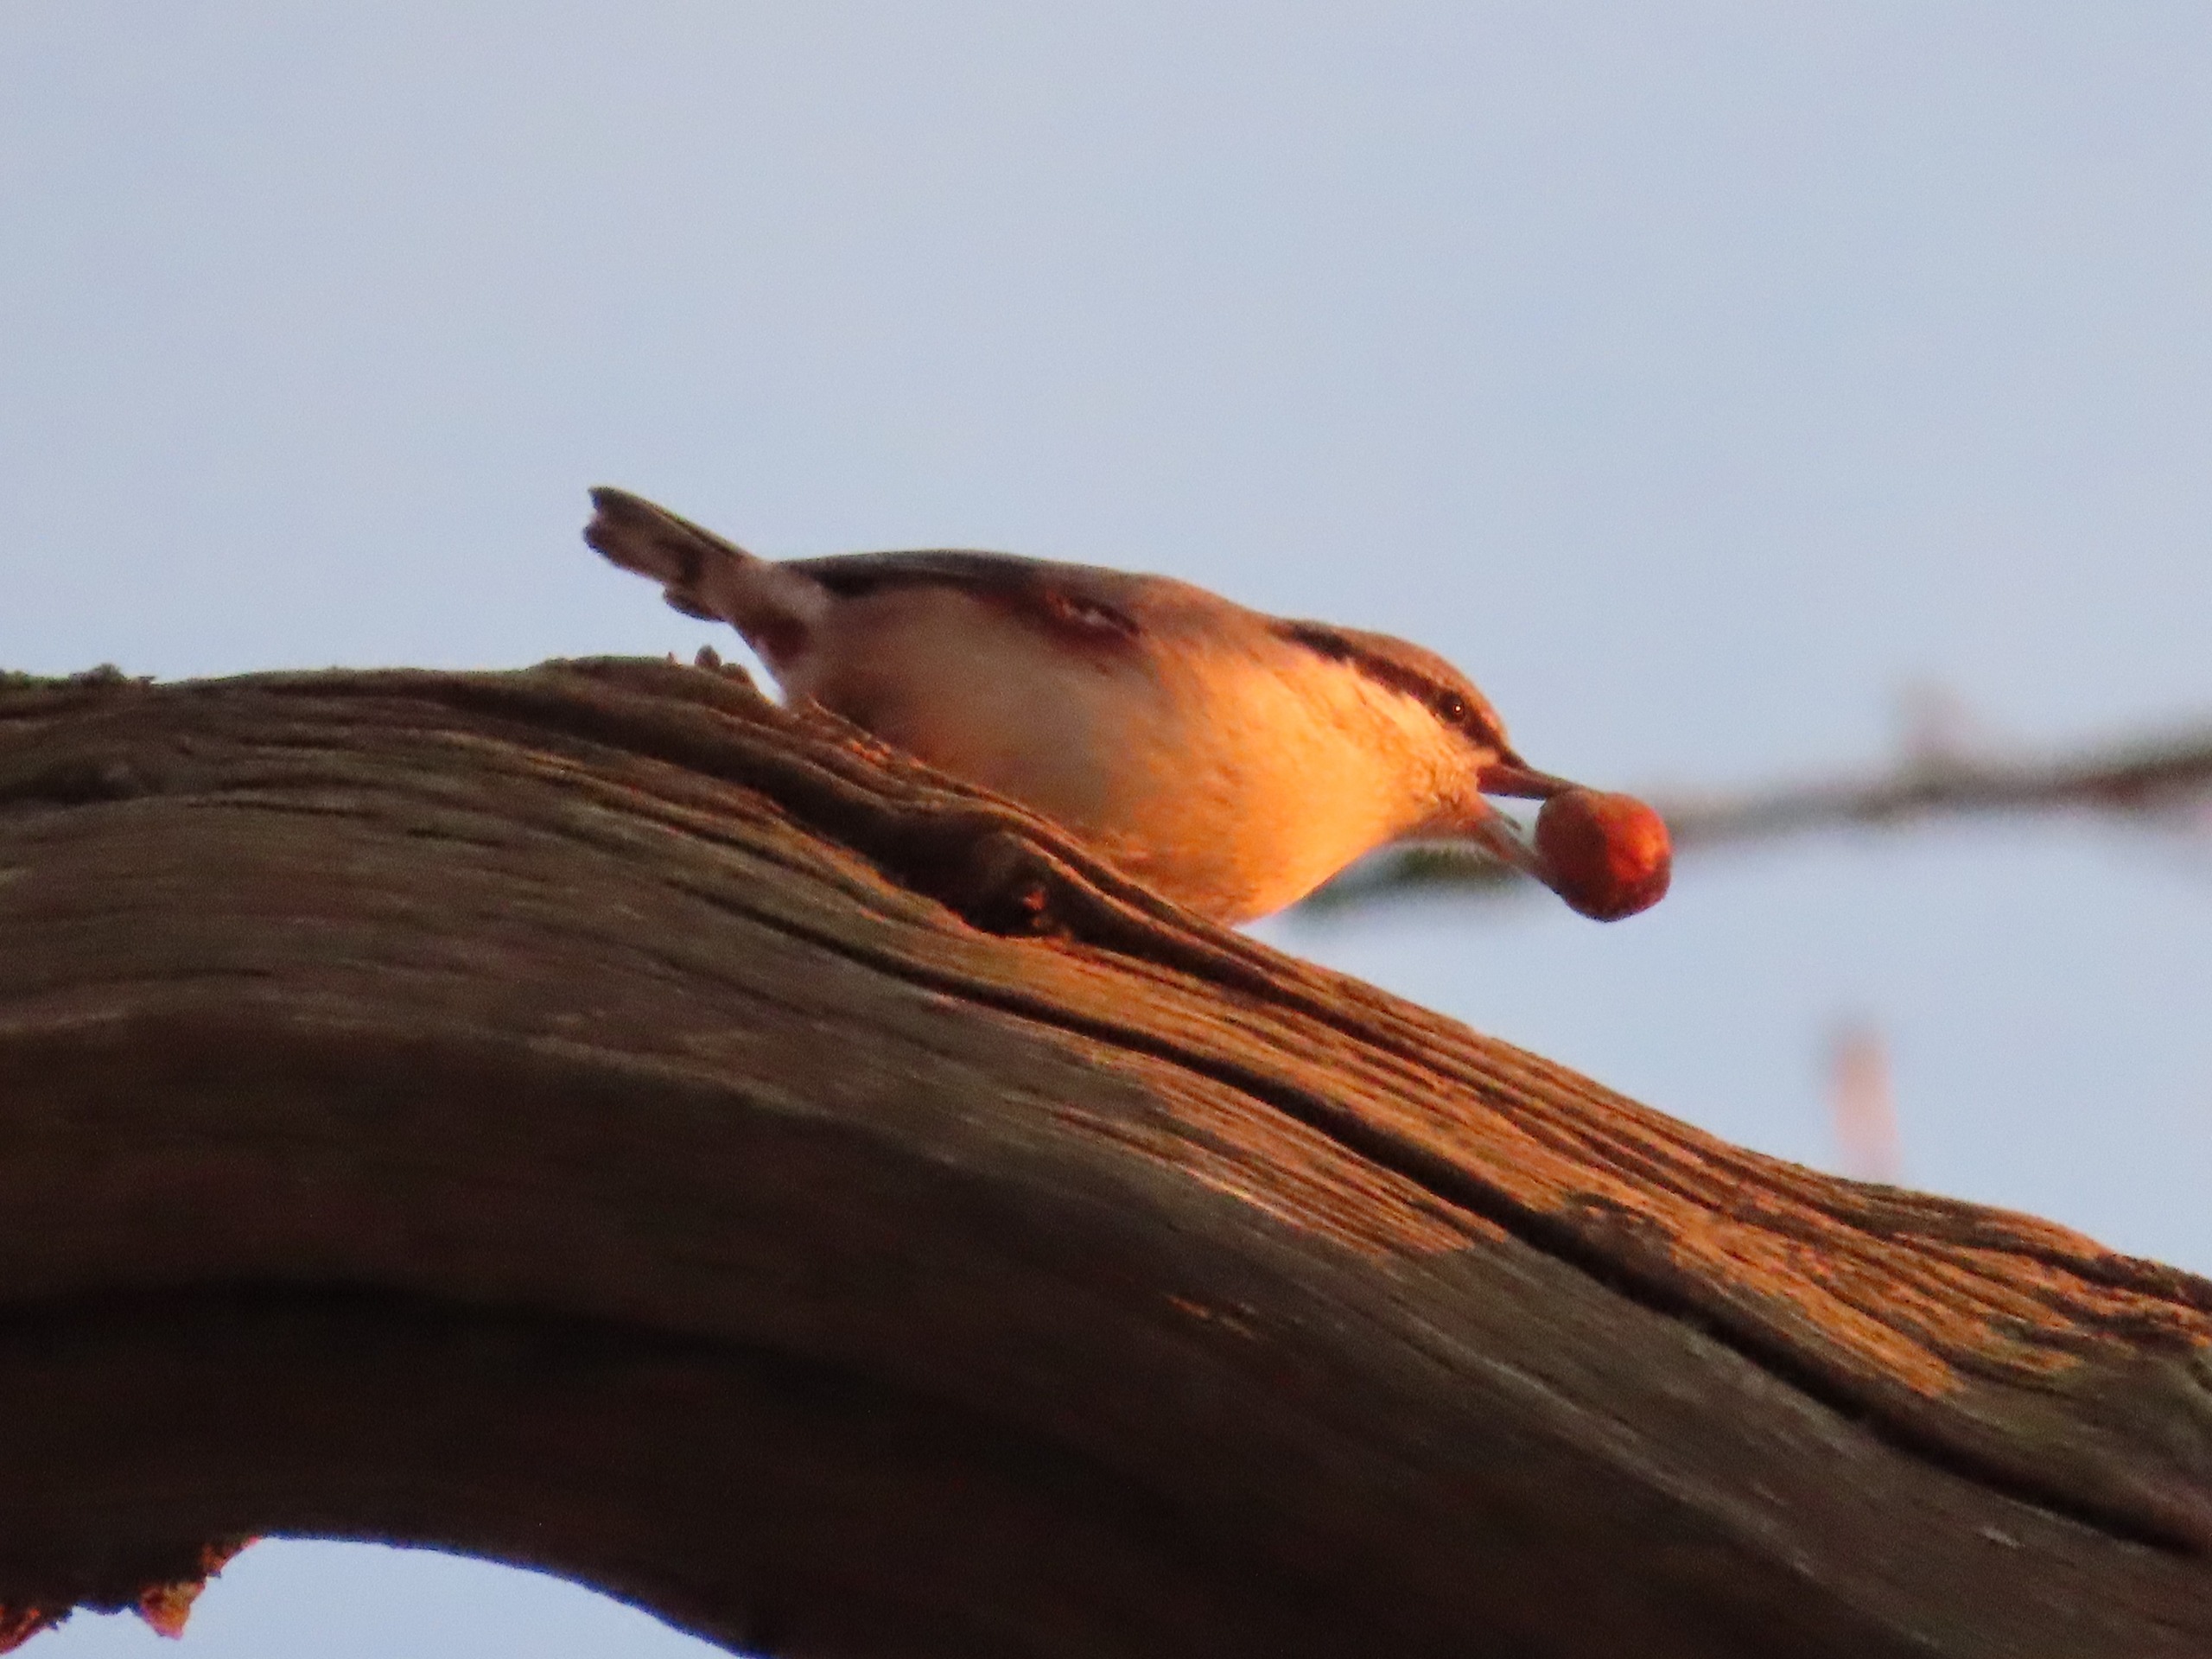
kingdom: Animalia
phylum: Chordata
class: Aves
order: Passeriformes
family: Sittidae
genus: Sitta
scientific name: Sitta europaea
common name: Spætmejse
